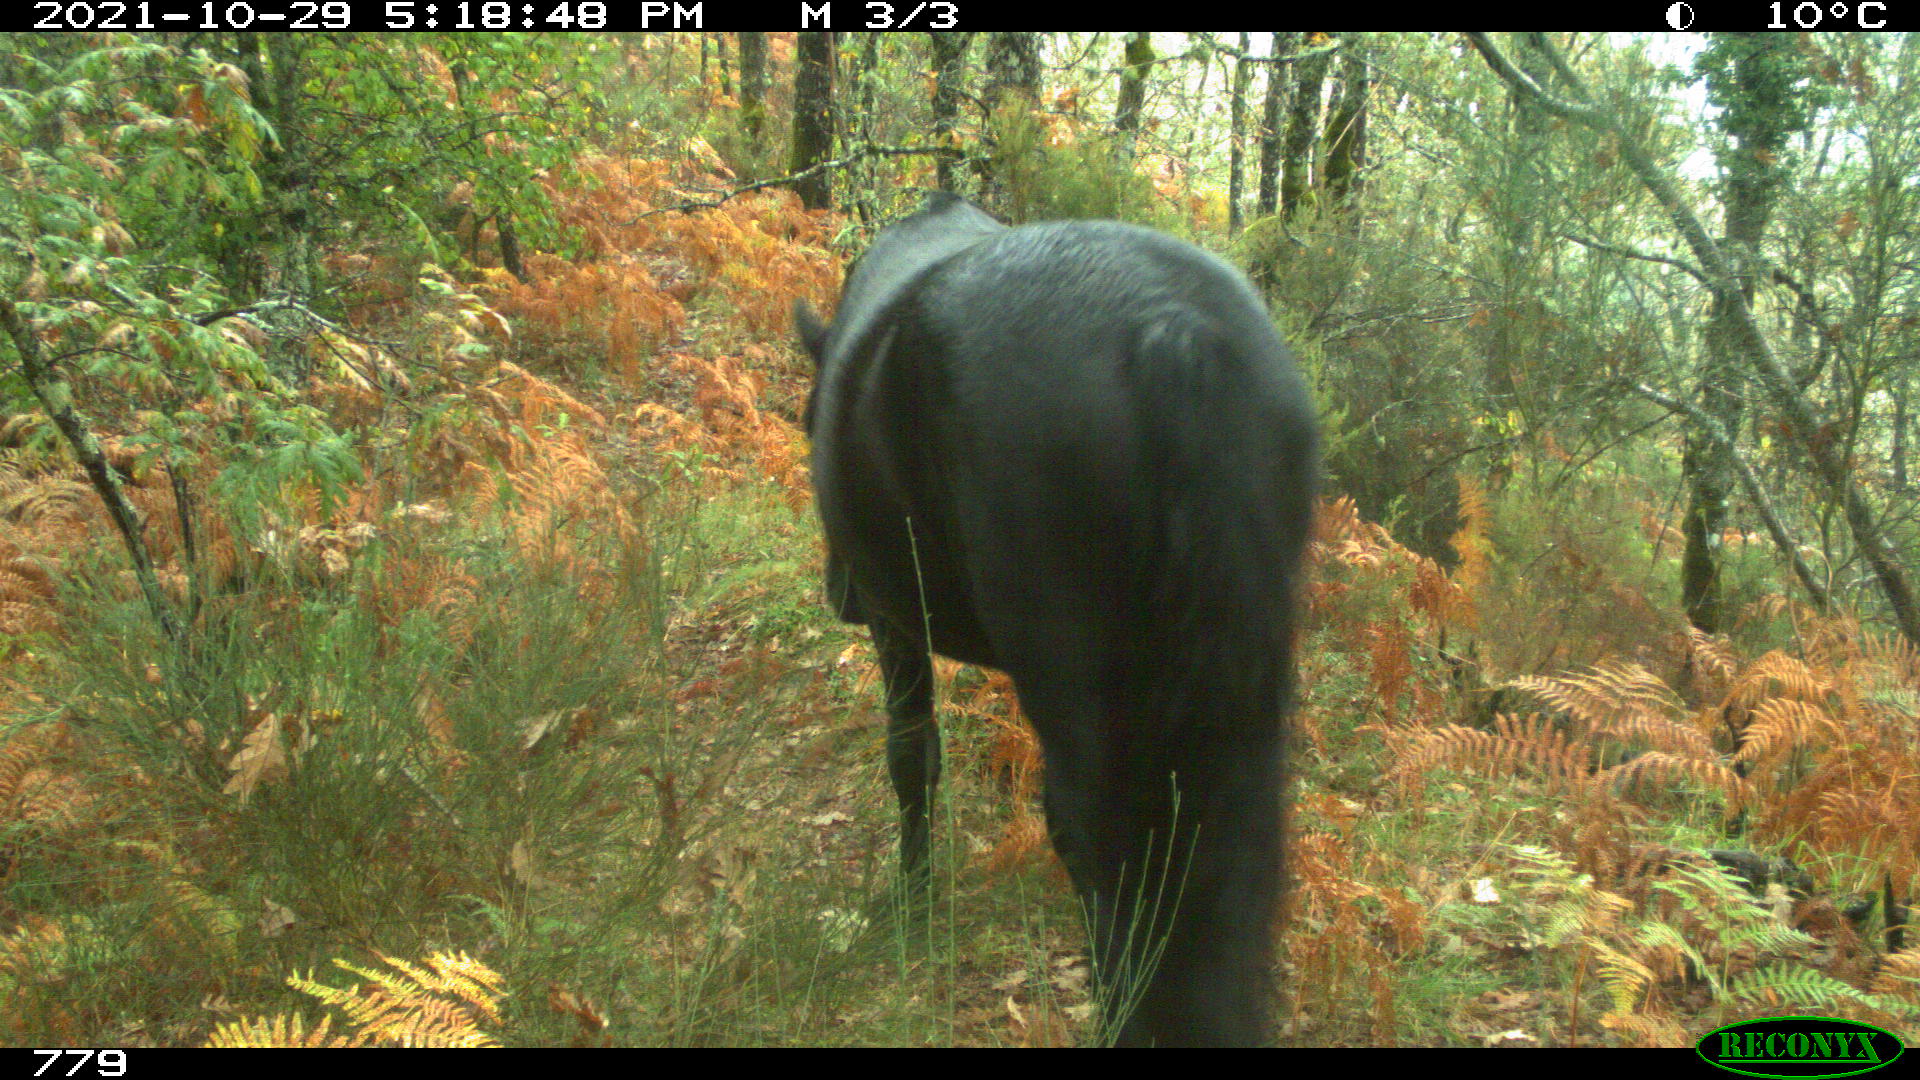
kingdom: Animalia
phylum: Chordata
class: Mammalia
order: Perissodactyla
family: Equidae
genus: Equus
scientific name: Equus caballus
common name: Horse
